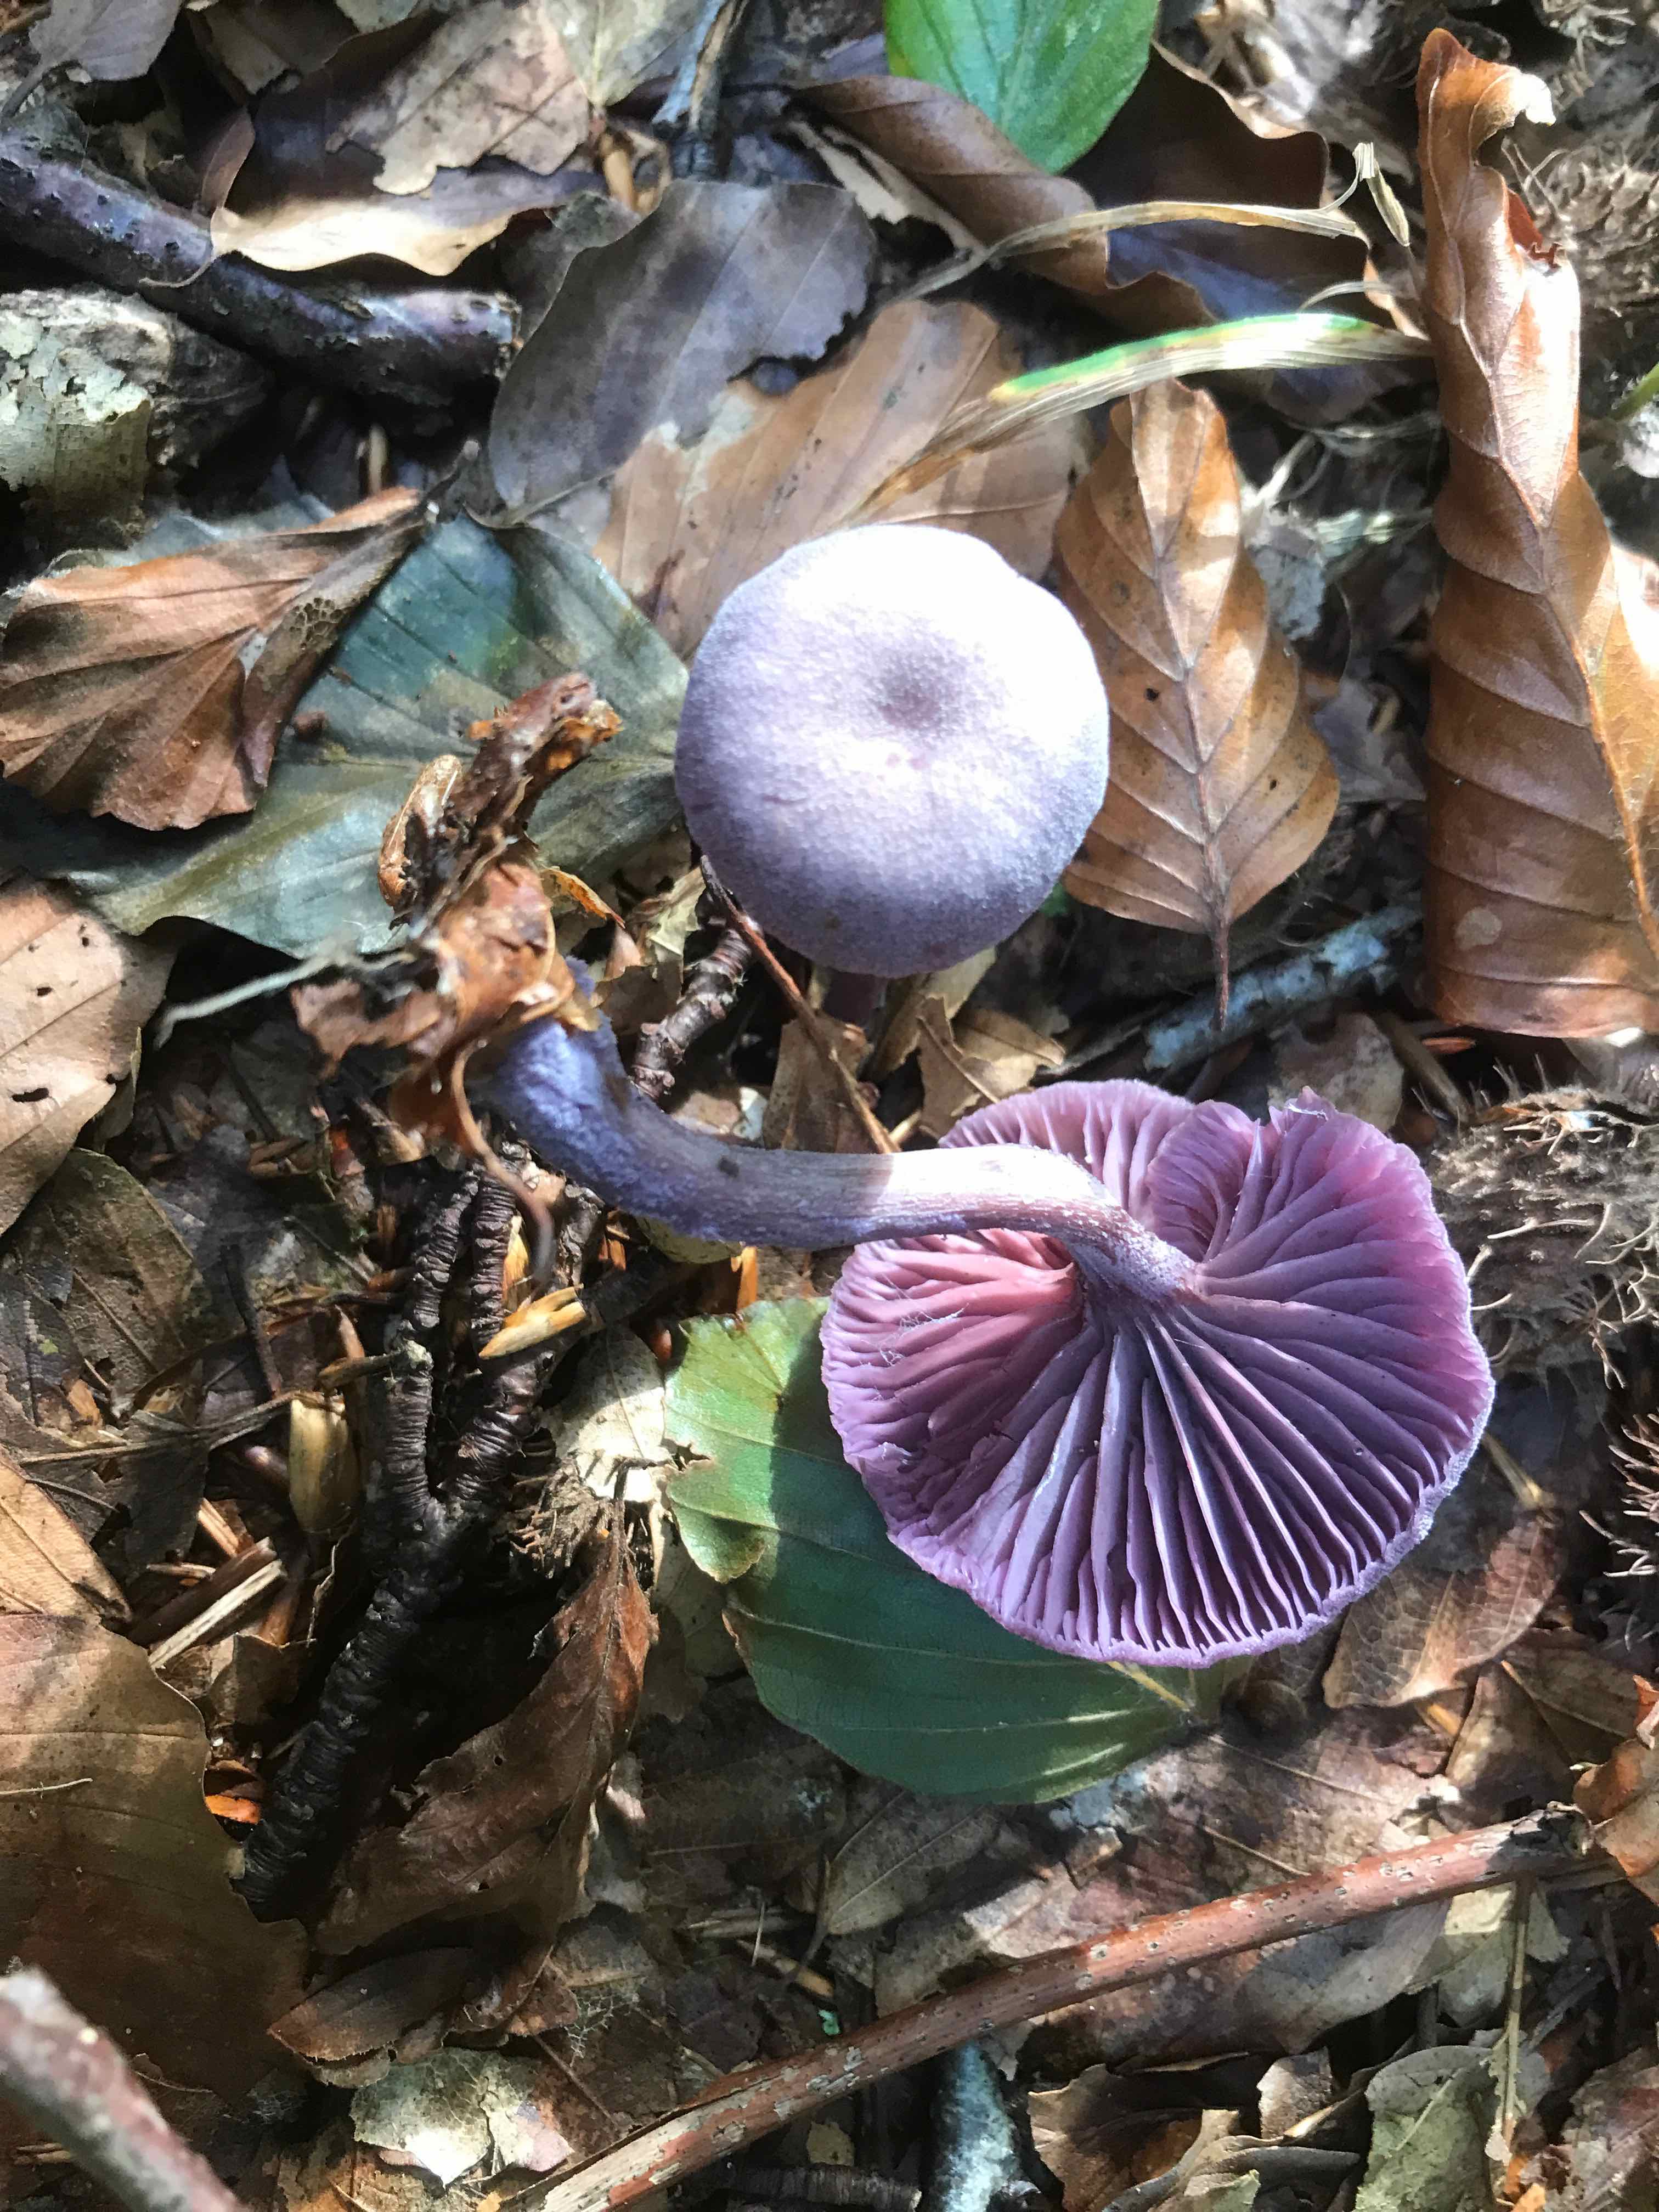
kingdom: Fungi
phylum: Basidiomycota
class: Agaricomycetes
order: Agaricales
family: Hydnangiaceae
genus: Laccaria
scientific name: Laccaria amethystina
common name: violet ametysthat
